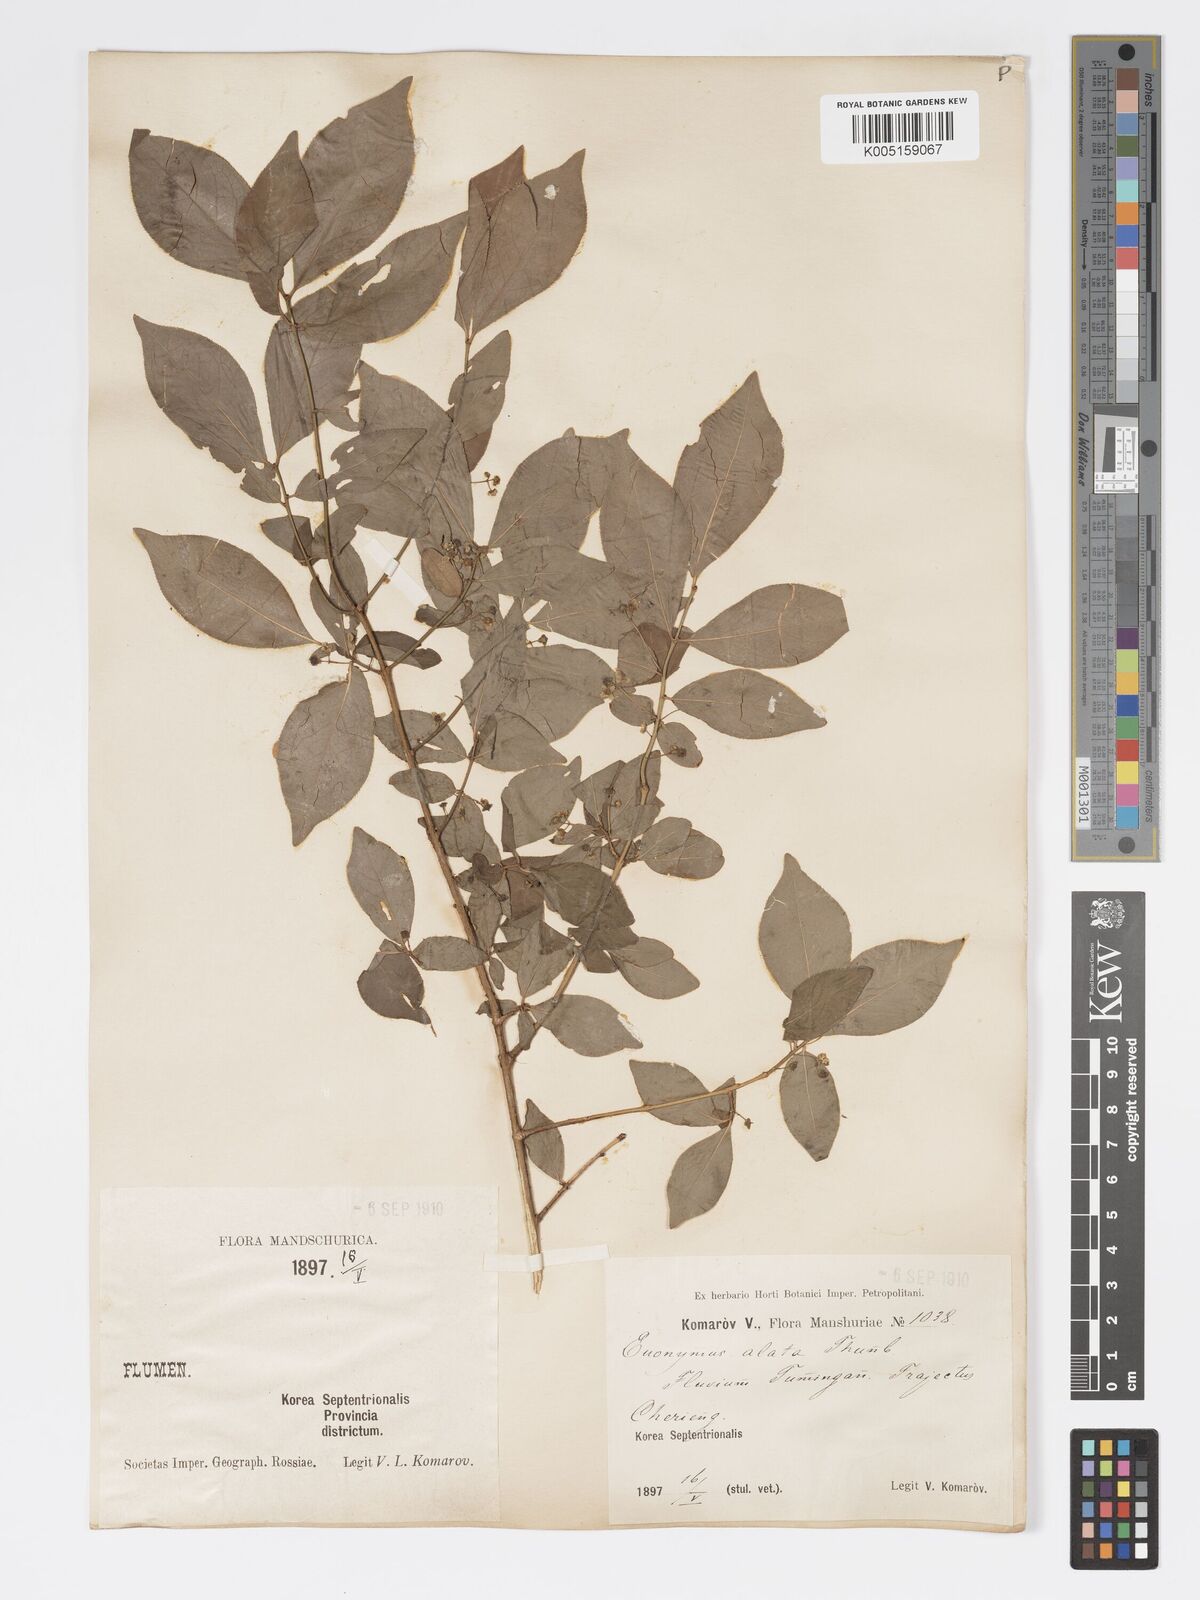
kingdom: Plantae
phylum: Tracheophyta
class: Magnoliopsida
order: Celastrales
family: Celastraceae
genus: Euonymus
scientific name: Euonymus
